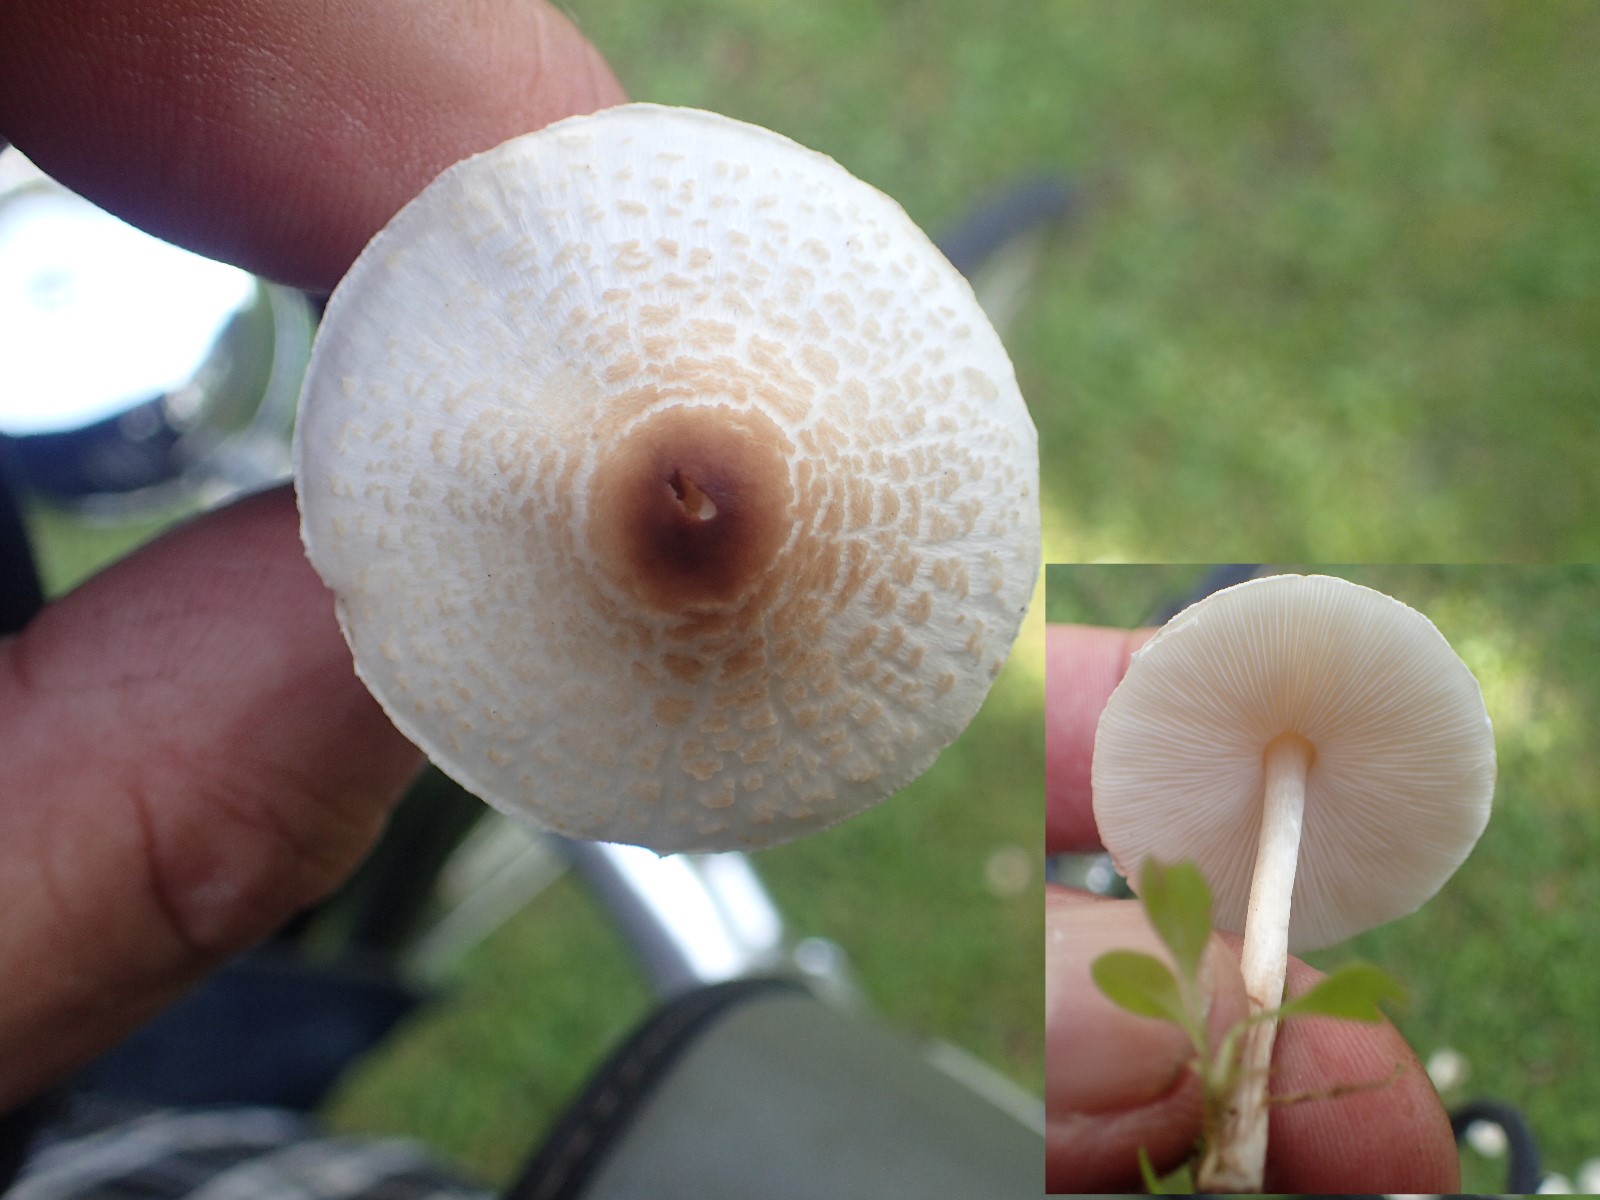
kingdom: Fungi
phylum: Basidiomycota
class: Agaricomycetes
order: Agaricales
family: Agaricaceae
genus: Lepiota
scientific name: Lepiota cristata
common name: stinkende parasolhat
